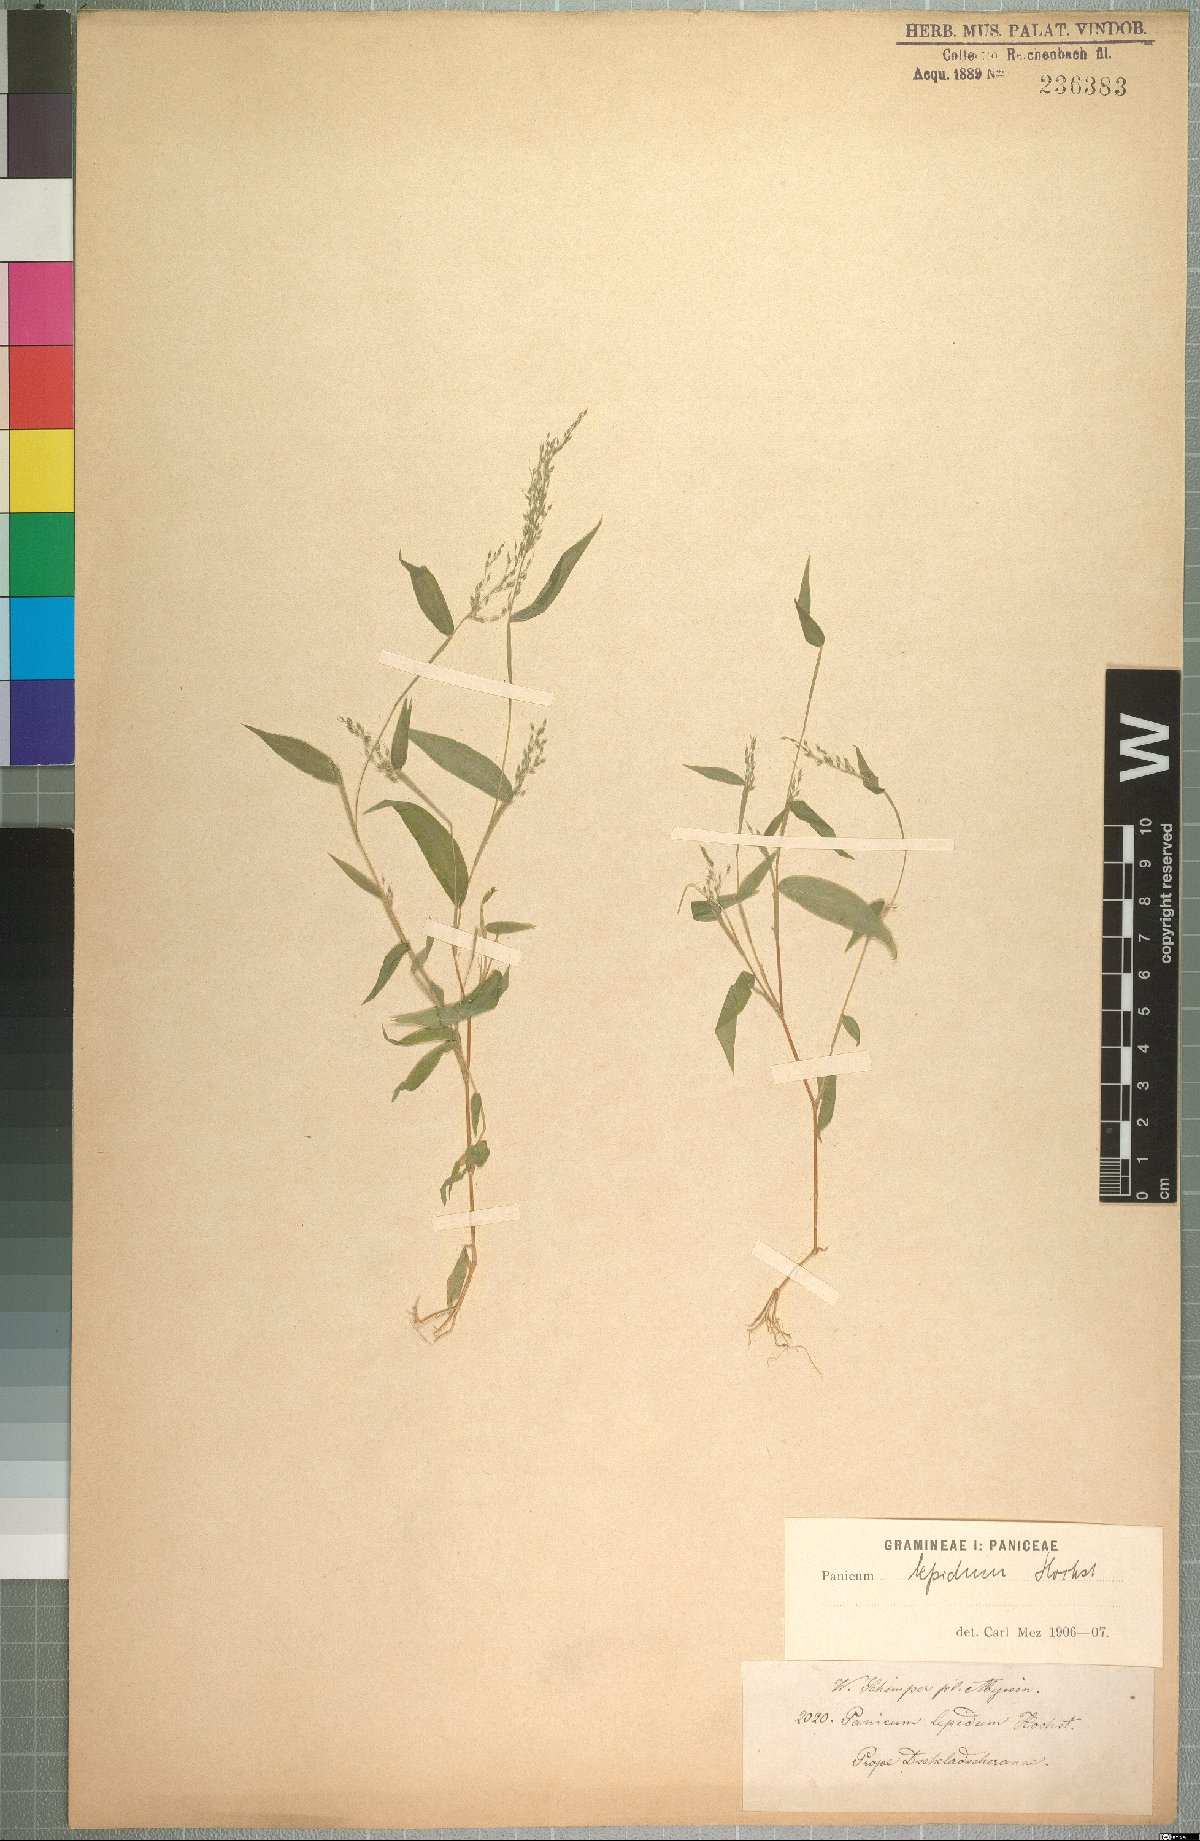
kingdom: Plantae
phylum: Tracheophyta
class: Liliopsida
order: Poales
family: Poaceae
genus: Panicum
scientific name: Panicum delicatulum
